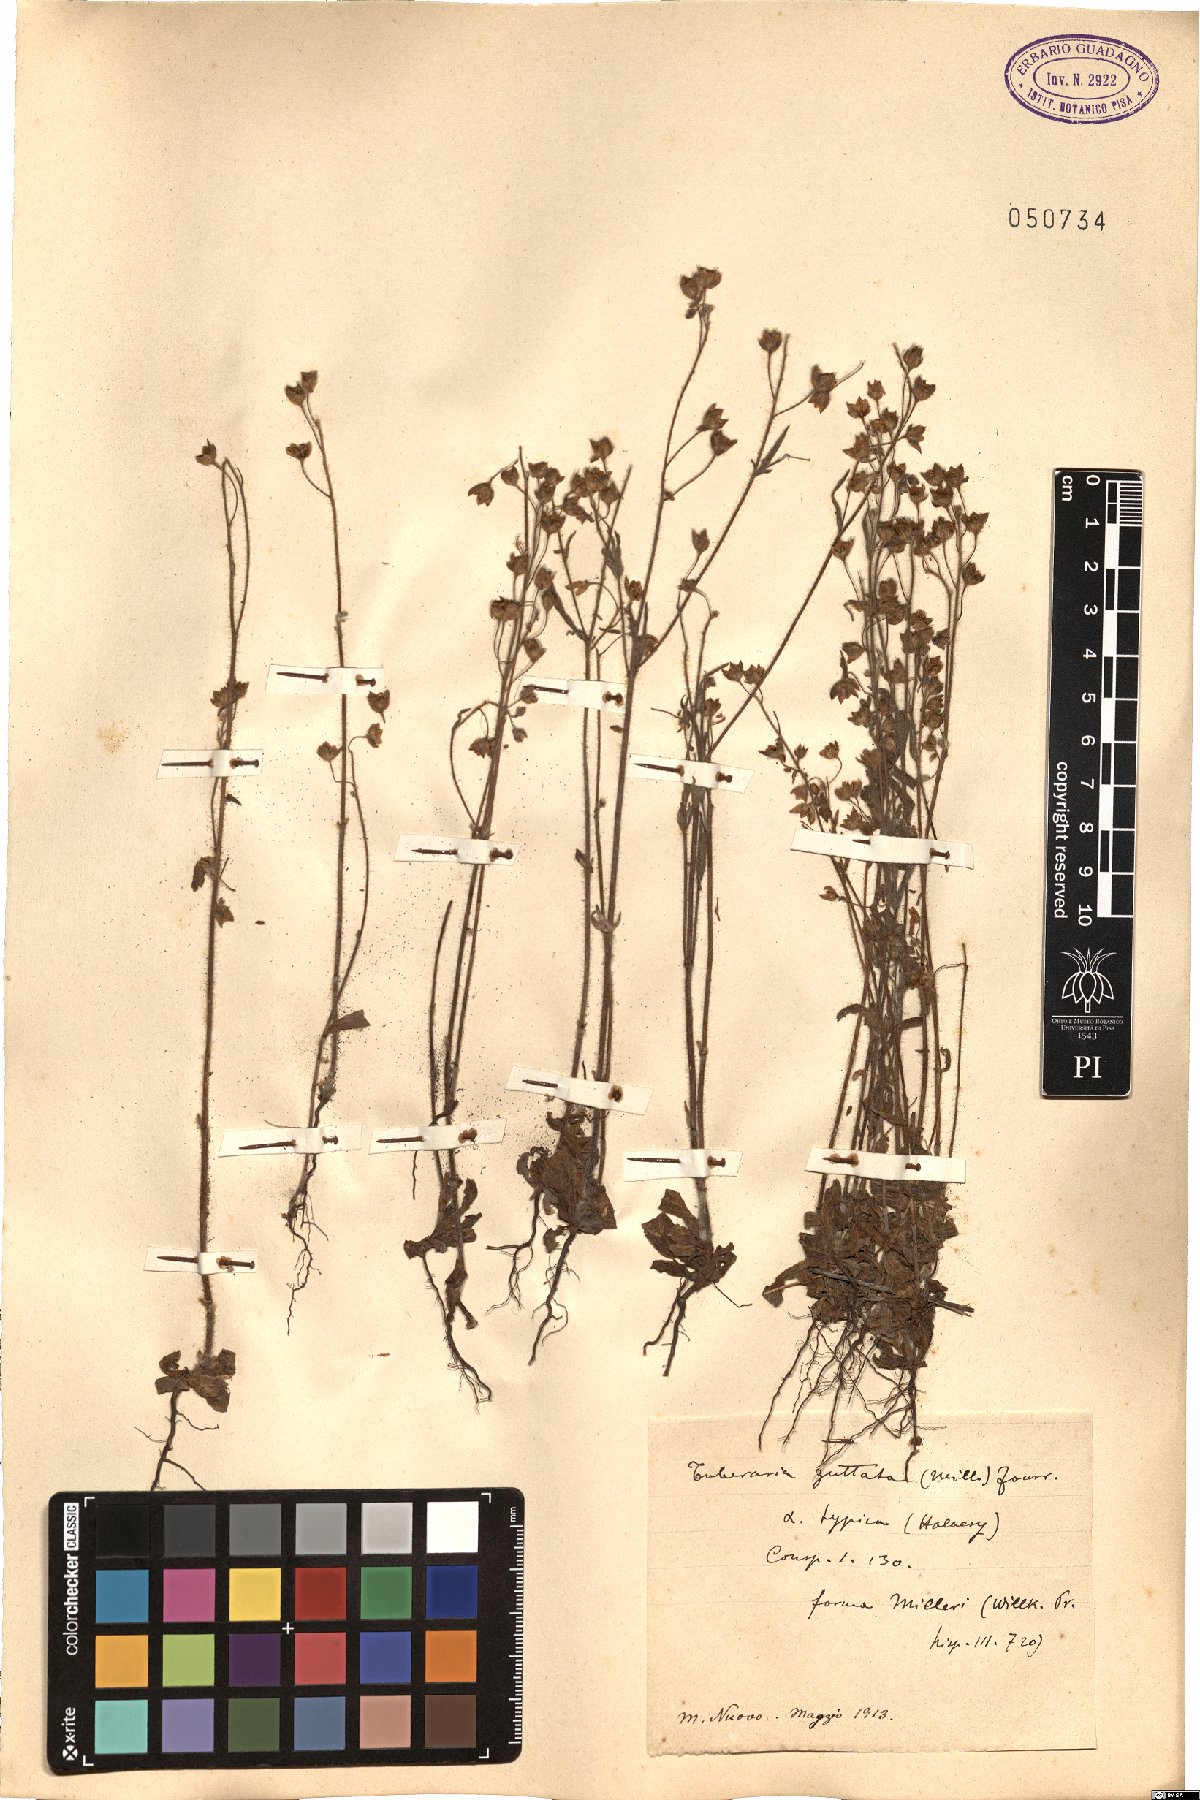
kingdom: Plantae
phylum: Tracheophyta
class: Magnoliopsida
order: Malvales
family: Cistaceae
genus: Tuberaria
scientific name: Tuberaria guttata
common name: Spotted rock-rose
